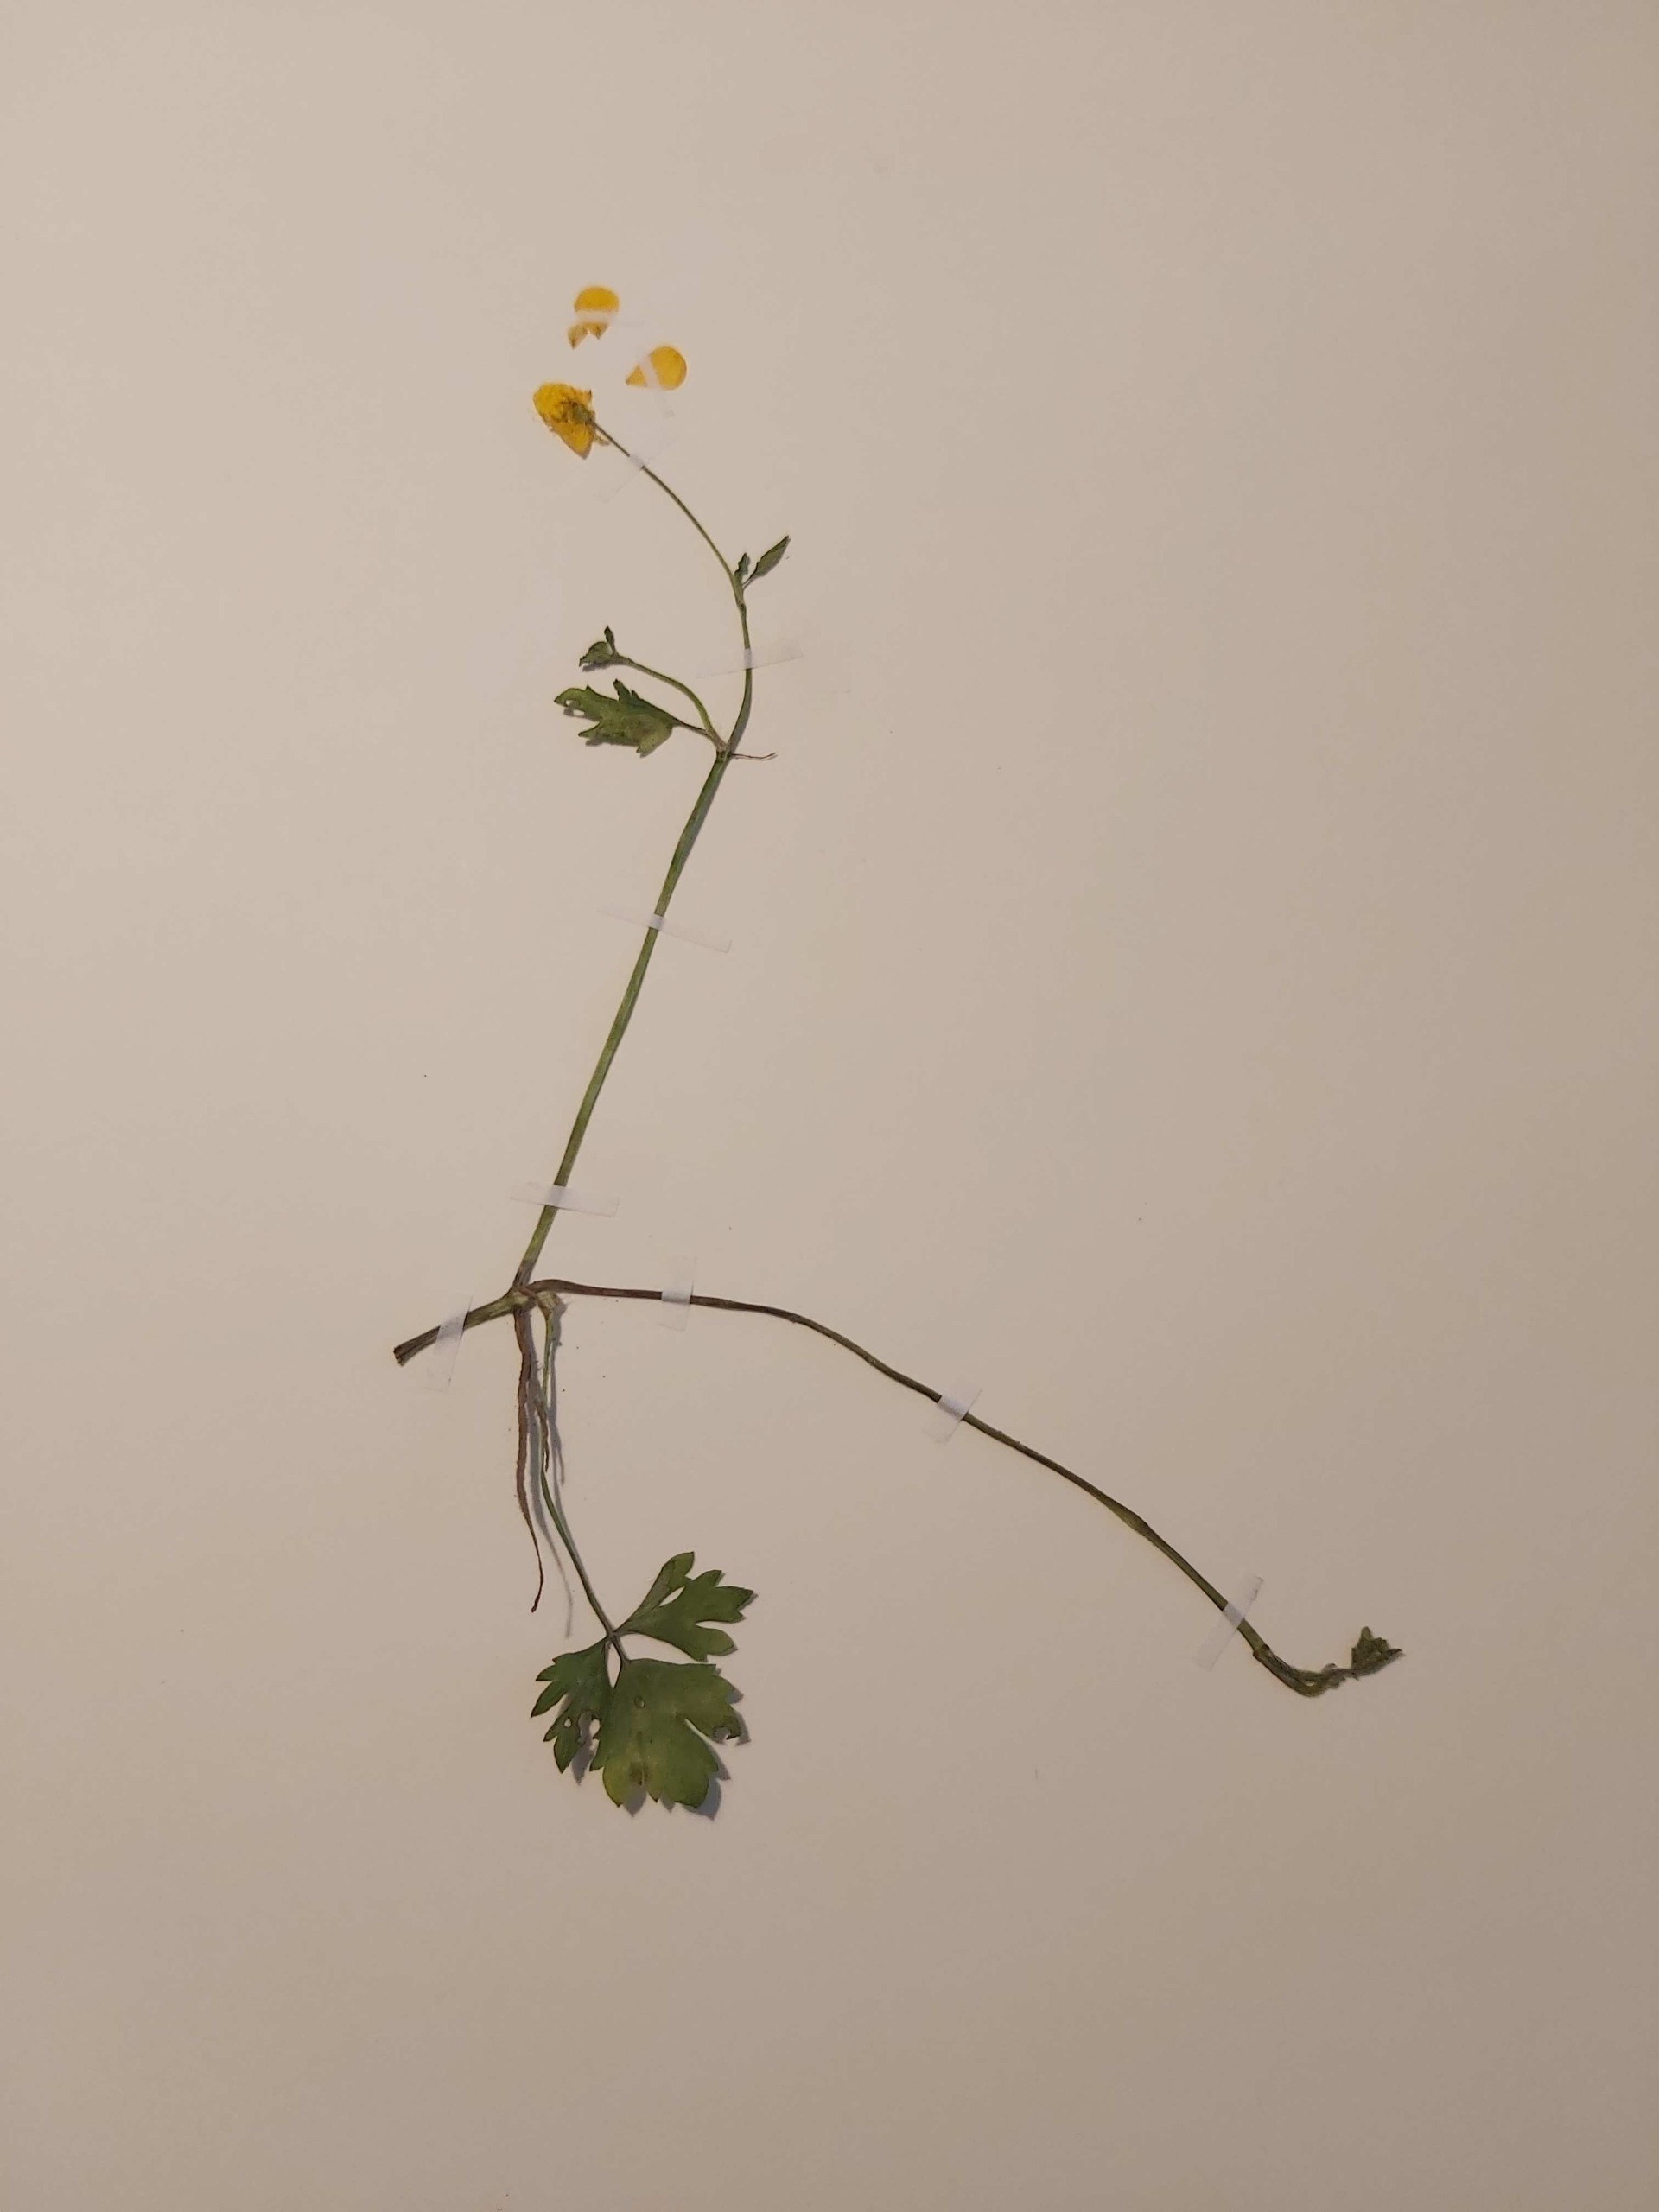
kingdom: Plantae
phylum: Tracheophyta
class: Magnoliopsida
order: Ranunculales
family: Ranunculaceae
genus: Ranunculus
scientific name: Ranunculus repens
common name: Lav ranunkel
